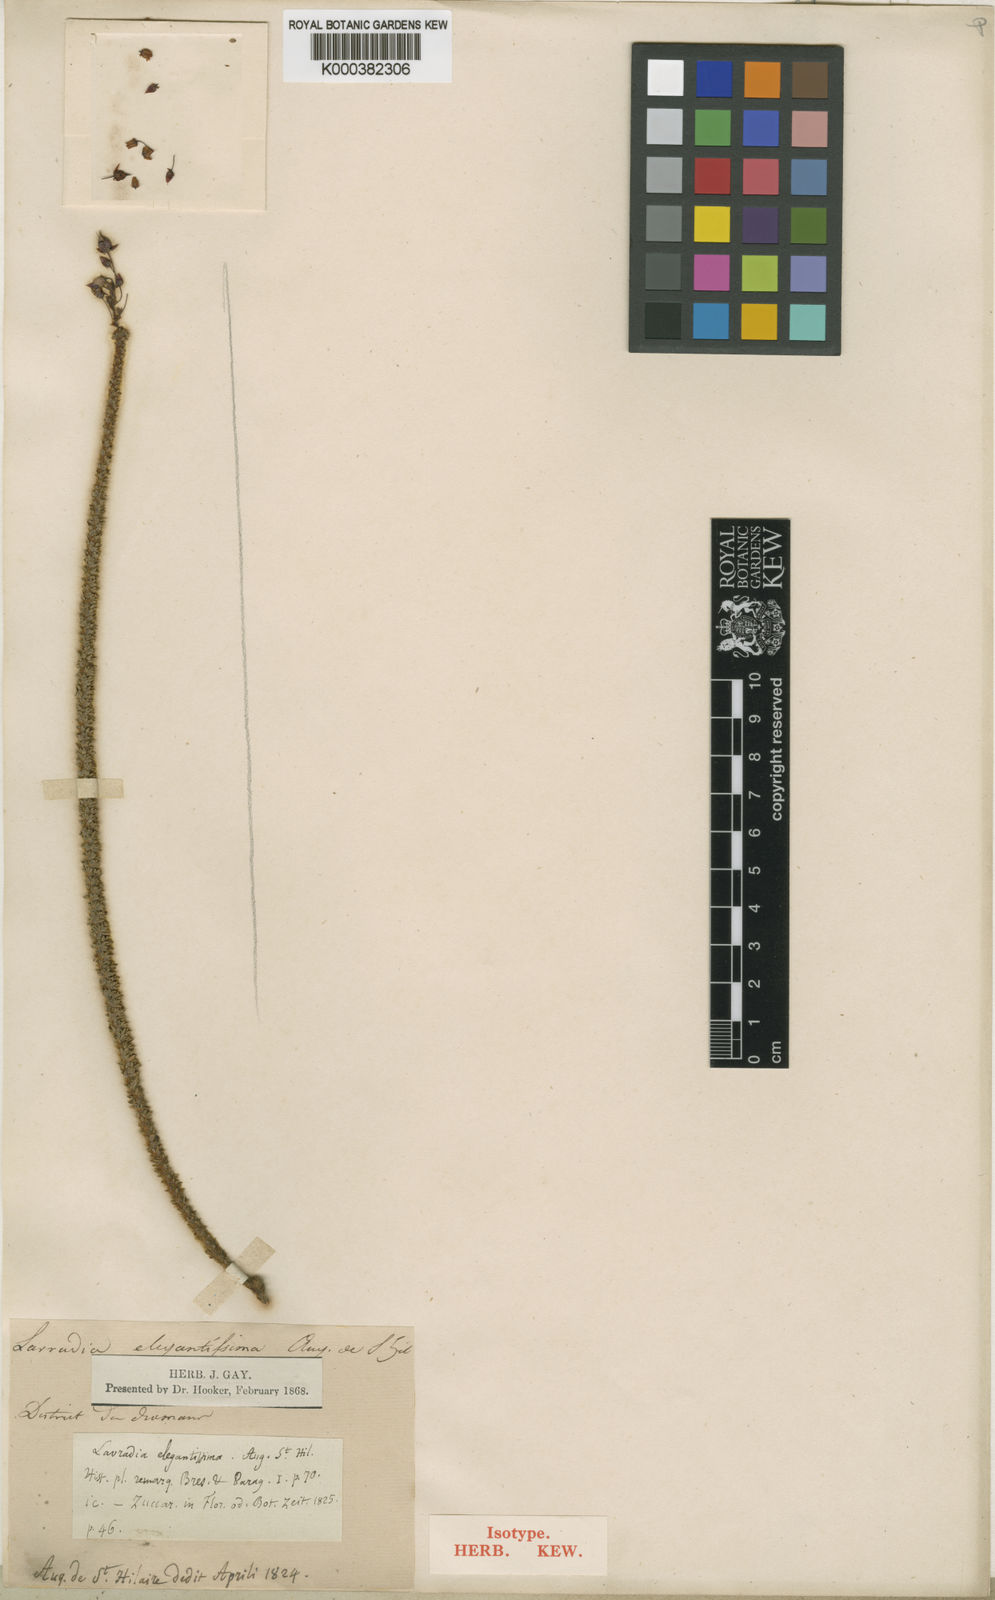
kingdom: Plantae
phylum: Tracheophyta
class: Magnoliopsida
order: Malpighiales
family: Ochnaceae
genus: Sauvagesia
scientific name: Sauvagesia elegantissima
